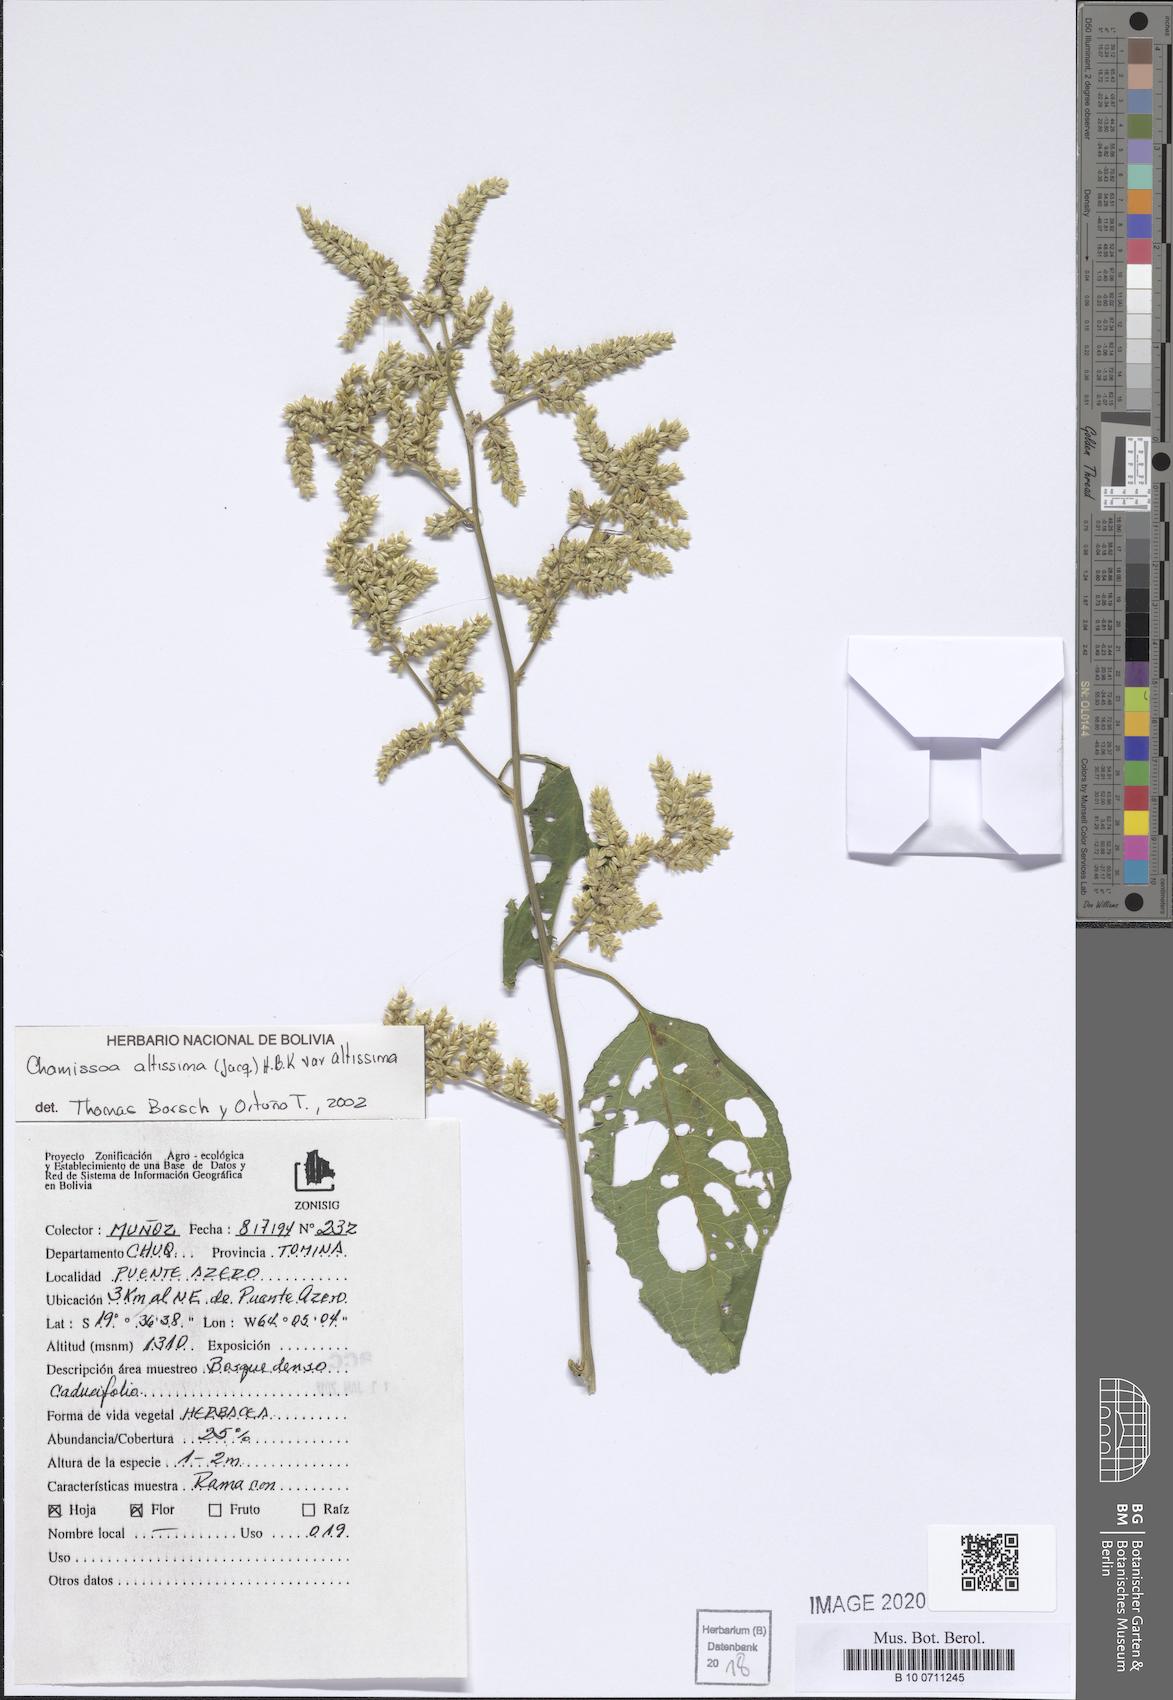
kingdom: Plantae
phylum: Tracheophyta
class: Magnoliopsida
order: Caryophyllales
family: Amaranthaceae
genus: Chamissoa
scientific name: Chamissoa altissima
